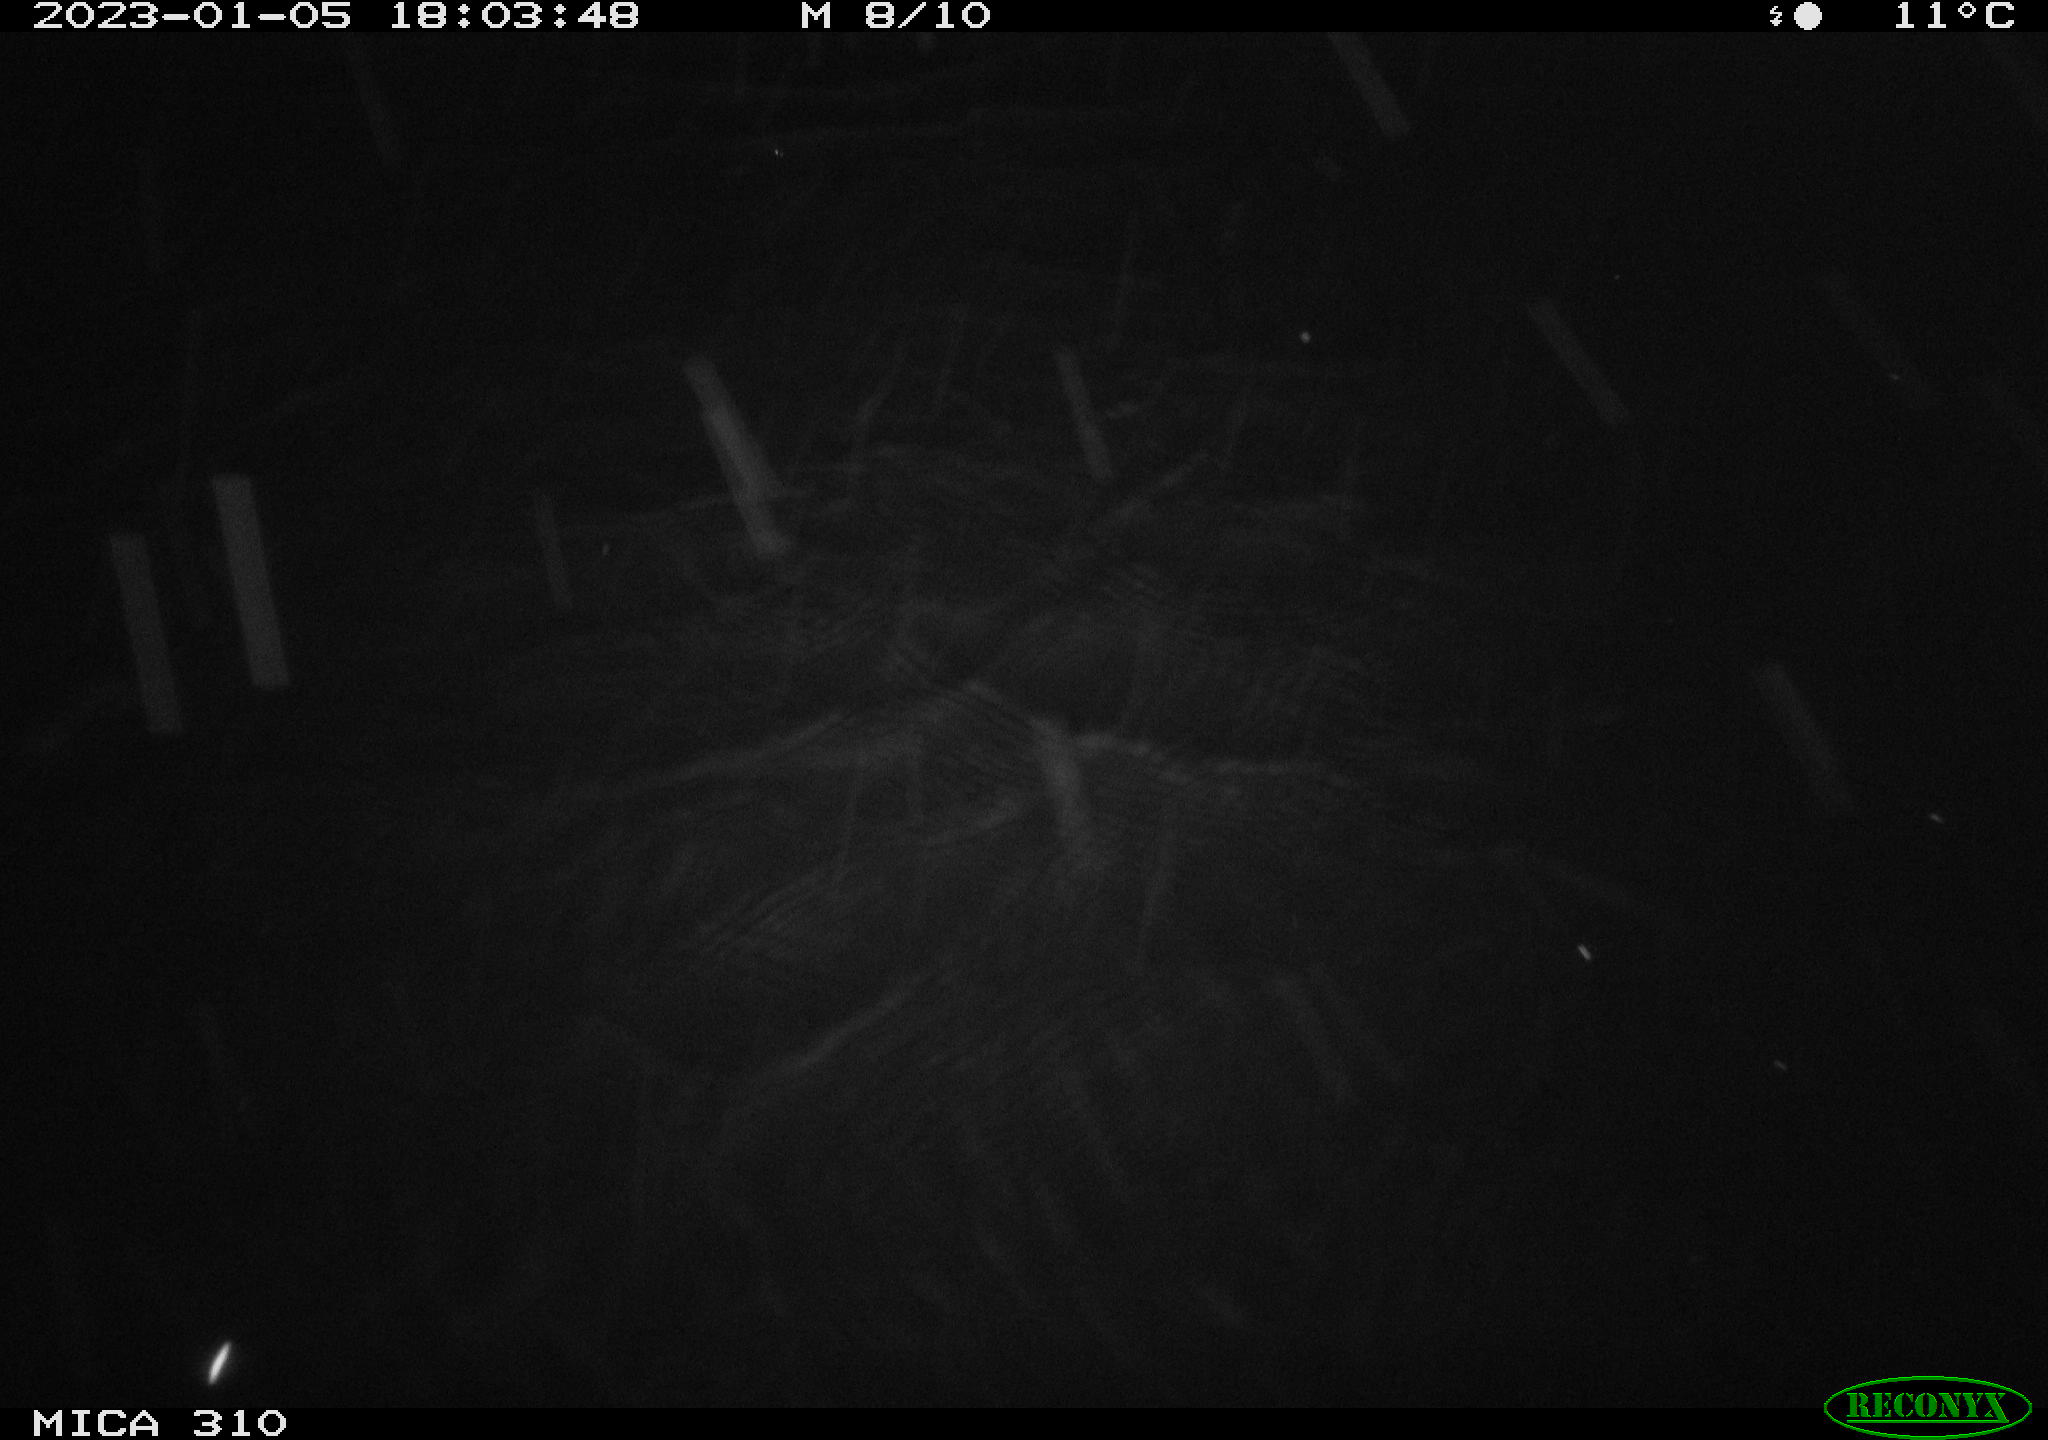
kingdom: Animalia
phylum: Chordata
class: Mammalia
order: Rodentia
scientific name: Rodentia
